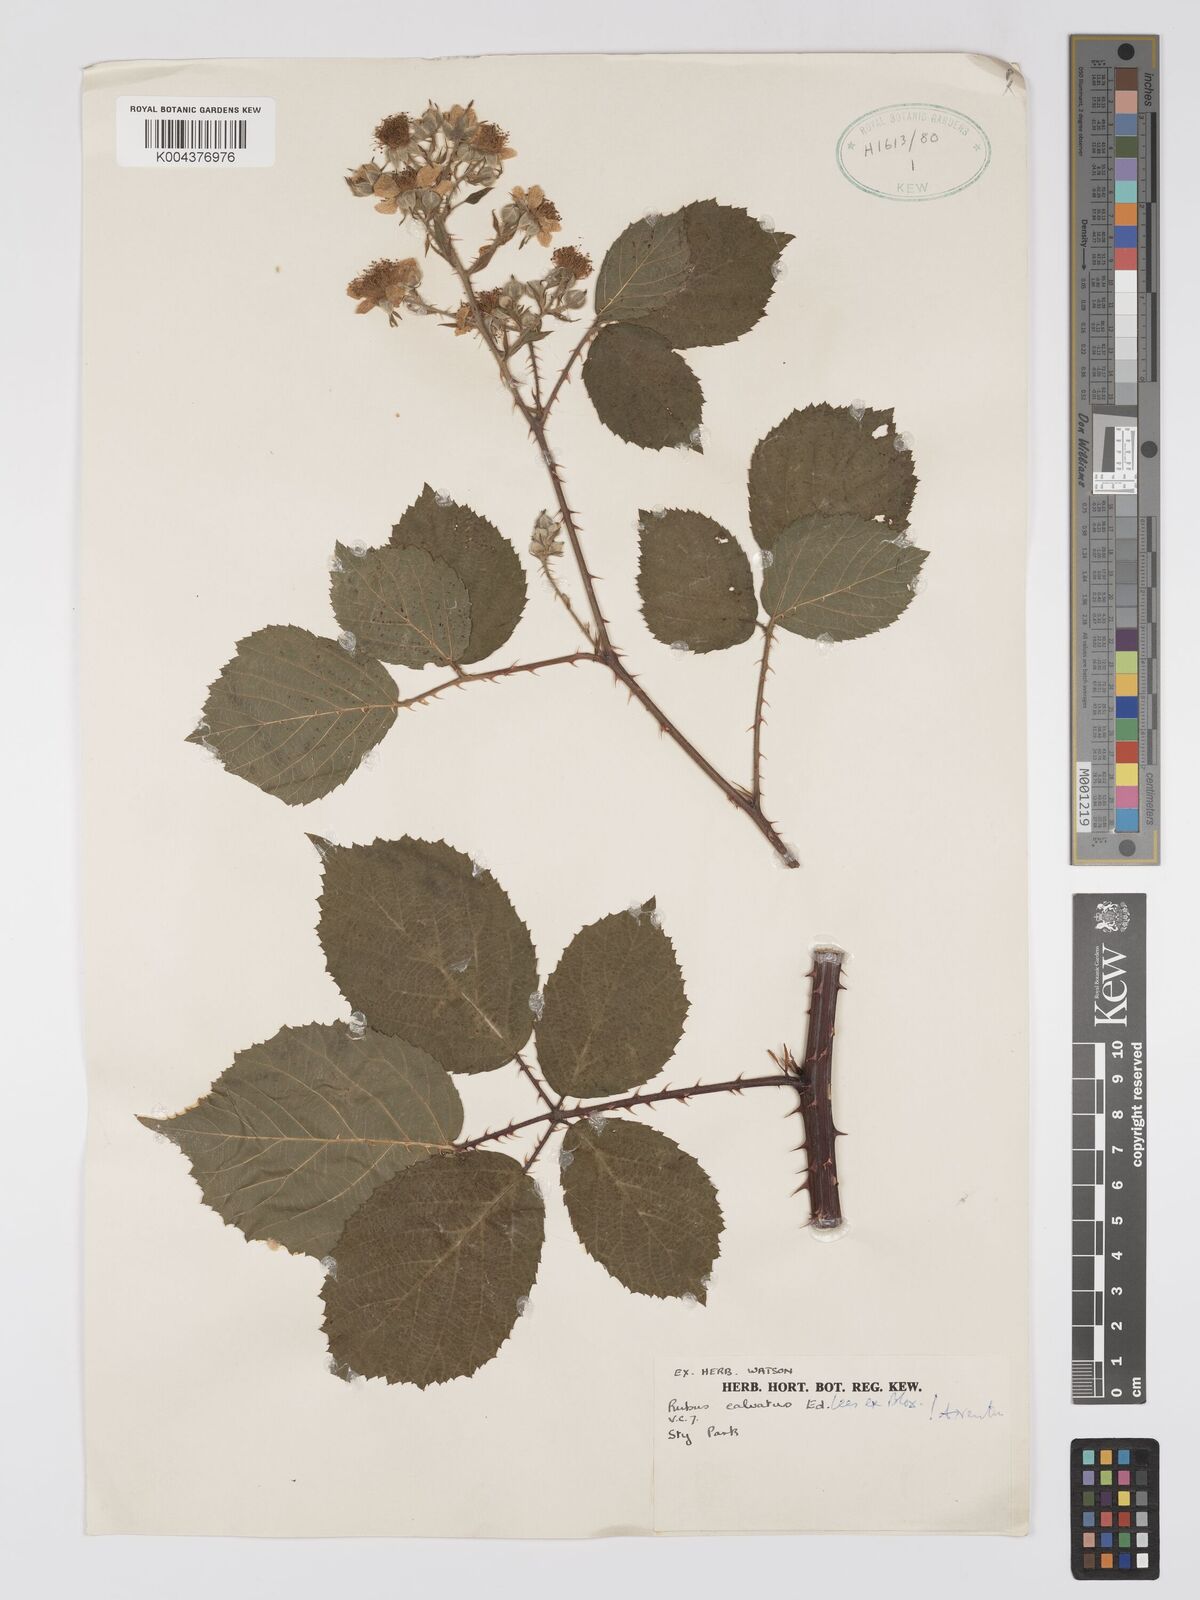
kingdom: Plantae
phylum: Tracheophyta
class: Magnoliopsida
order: Rosales
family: Rosaceae
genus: Rubus
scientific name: Rubus calvatus
